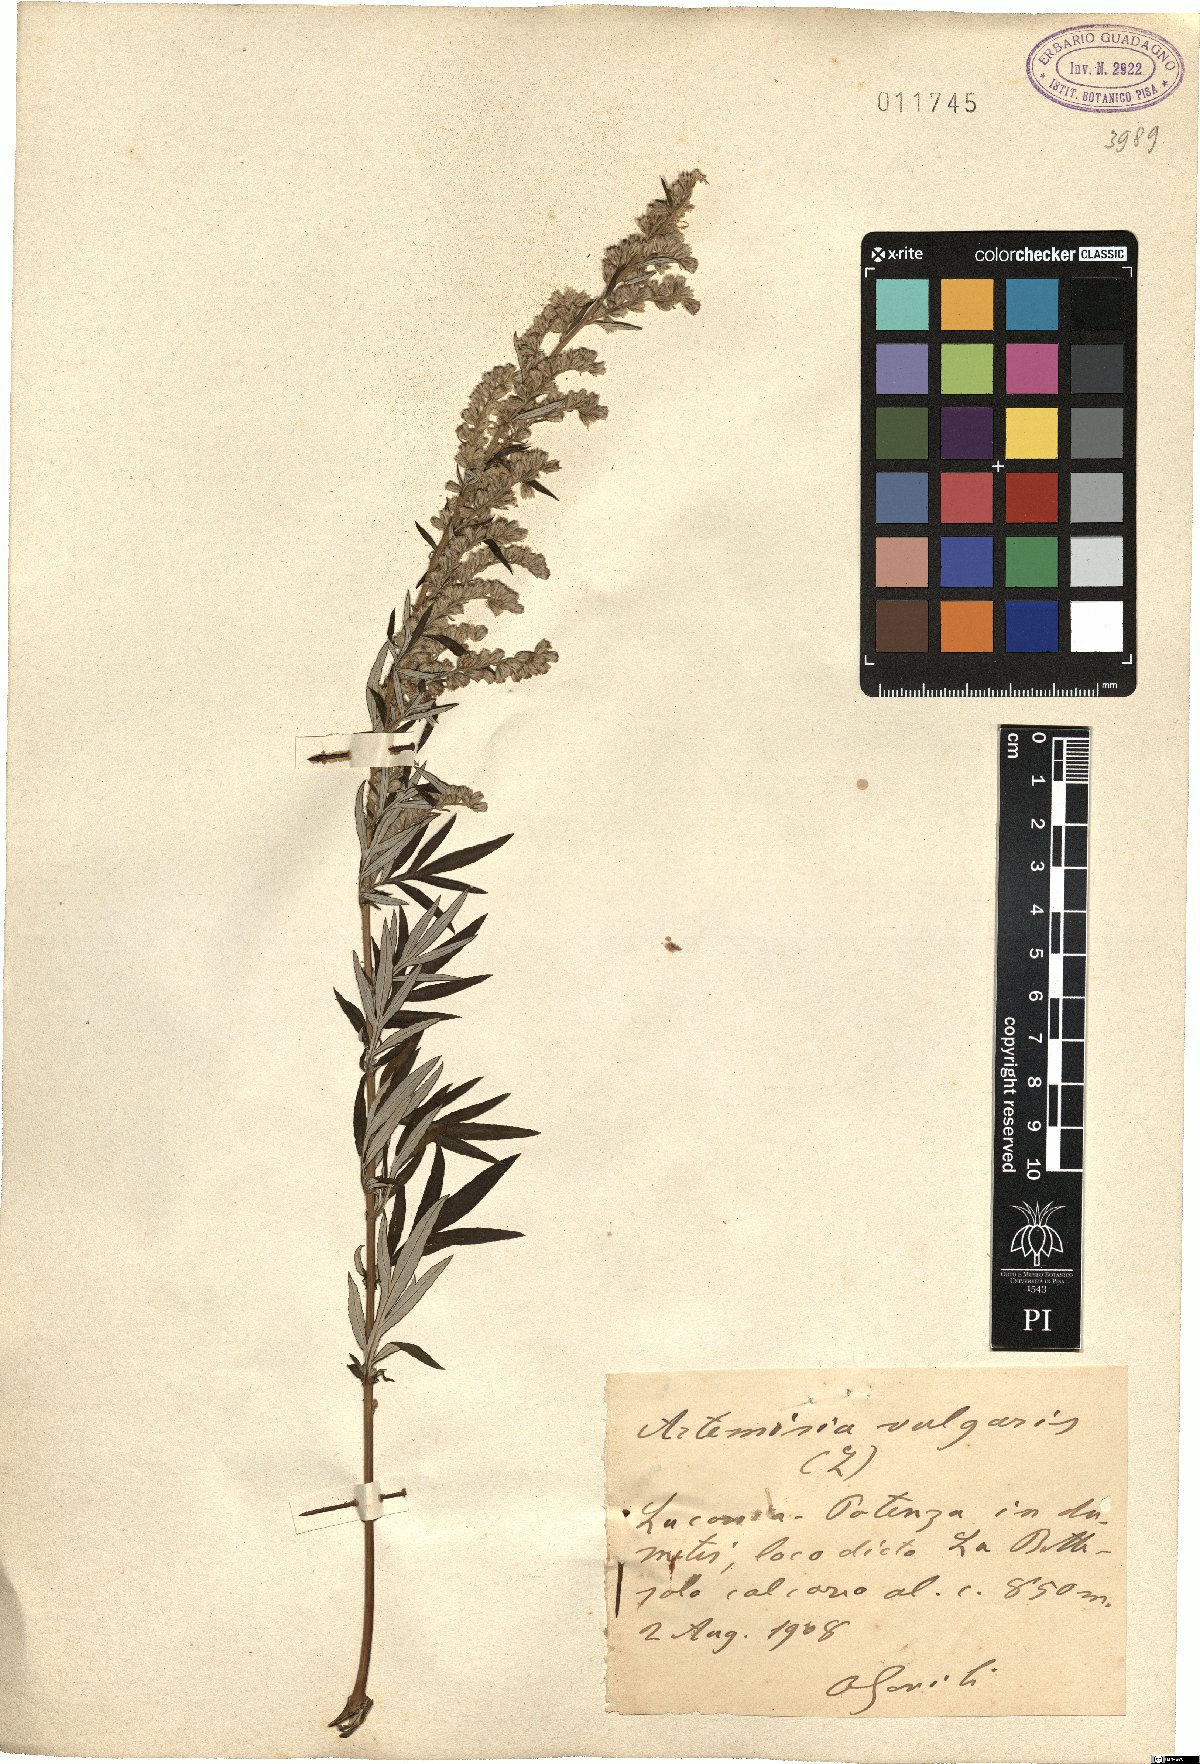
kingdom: Plantae
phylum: Tracheophyta
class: Magnoliopsida
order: Asterales
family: Asteraceae
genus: Artemisia
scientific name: Artemisia vulgaris
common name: Mugwort
